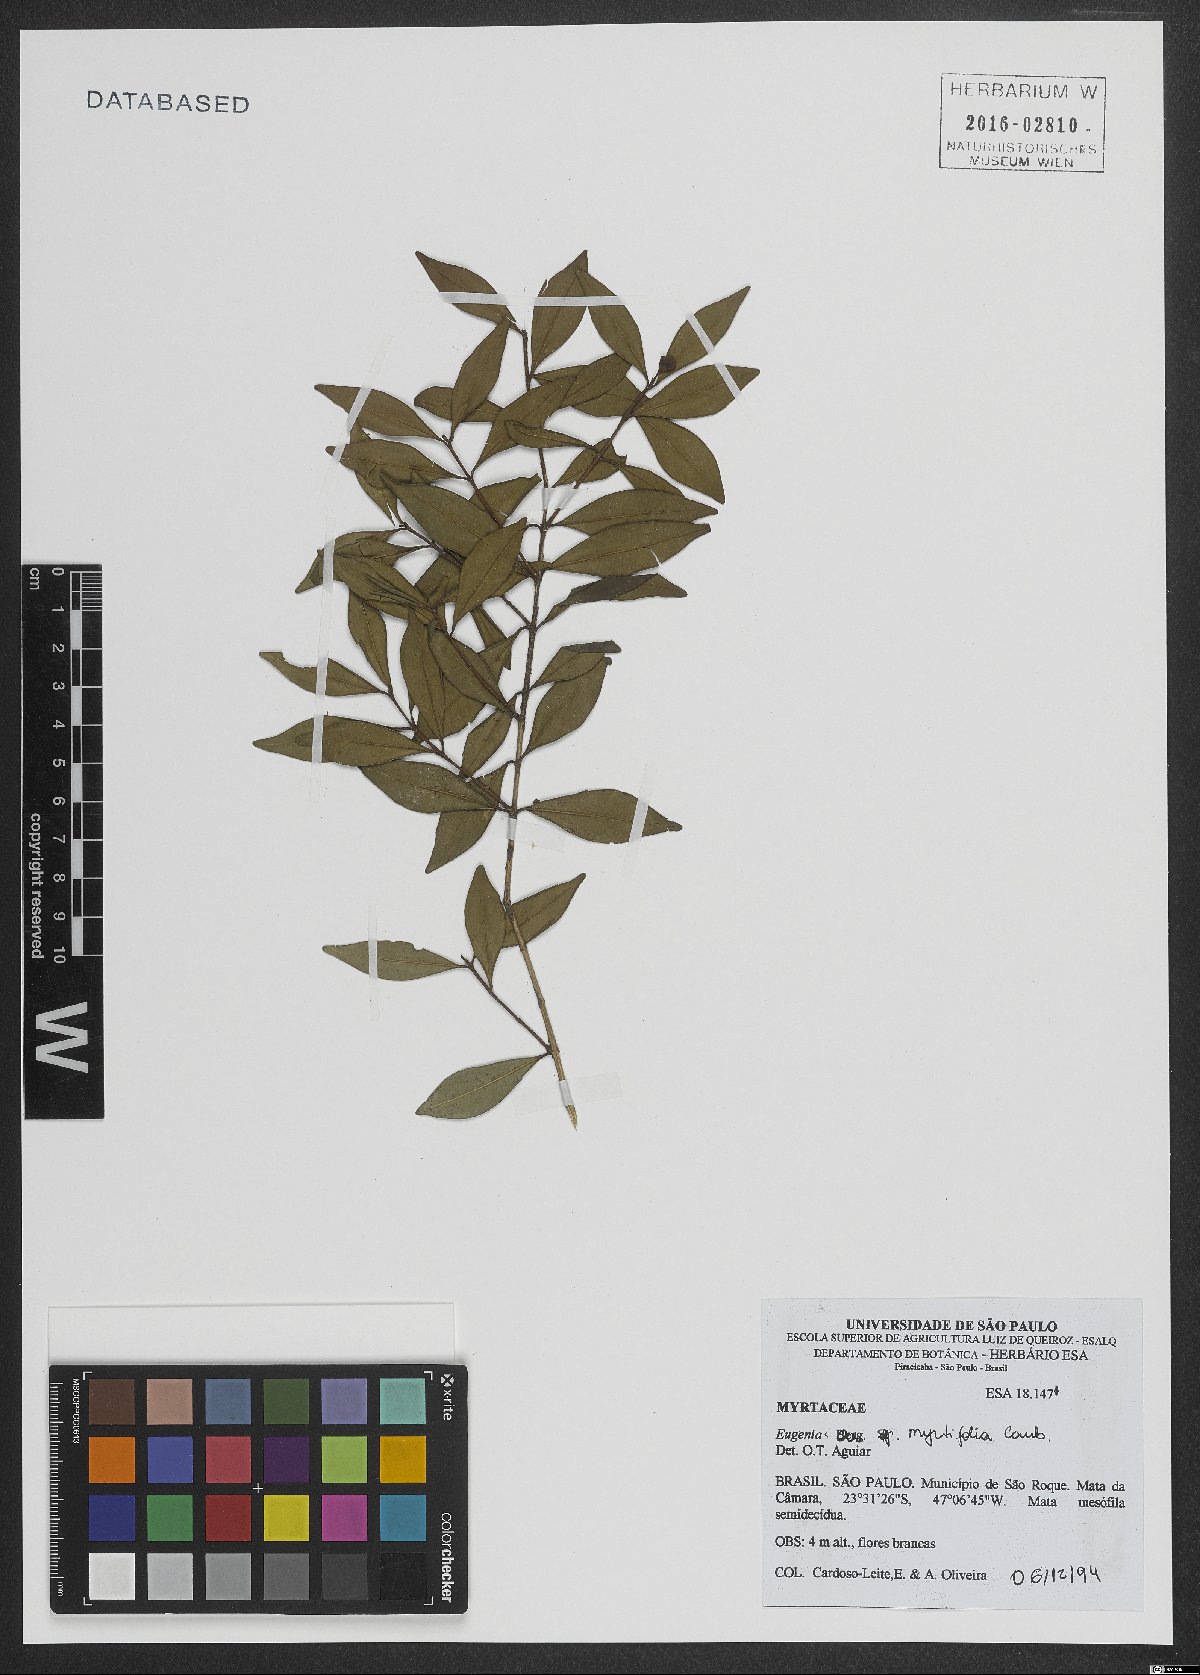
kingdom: Plantae
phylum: Tracheophyta
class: Magnoliopsida
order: Myrtales
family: Myrtaceae
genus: Eugenia
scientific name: Eugenia neomyrtifolia
